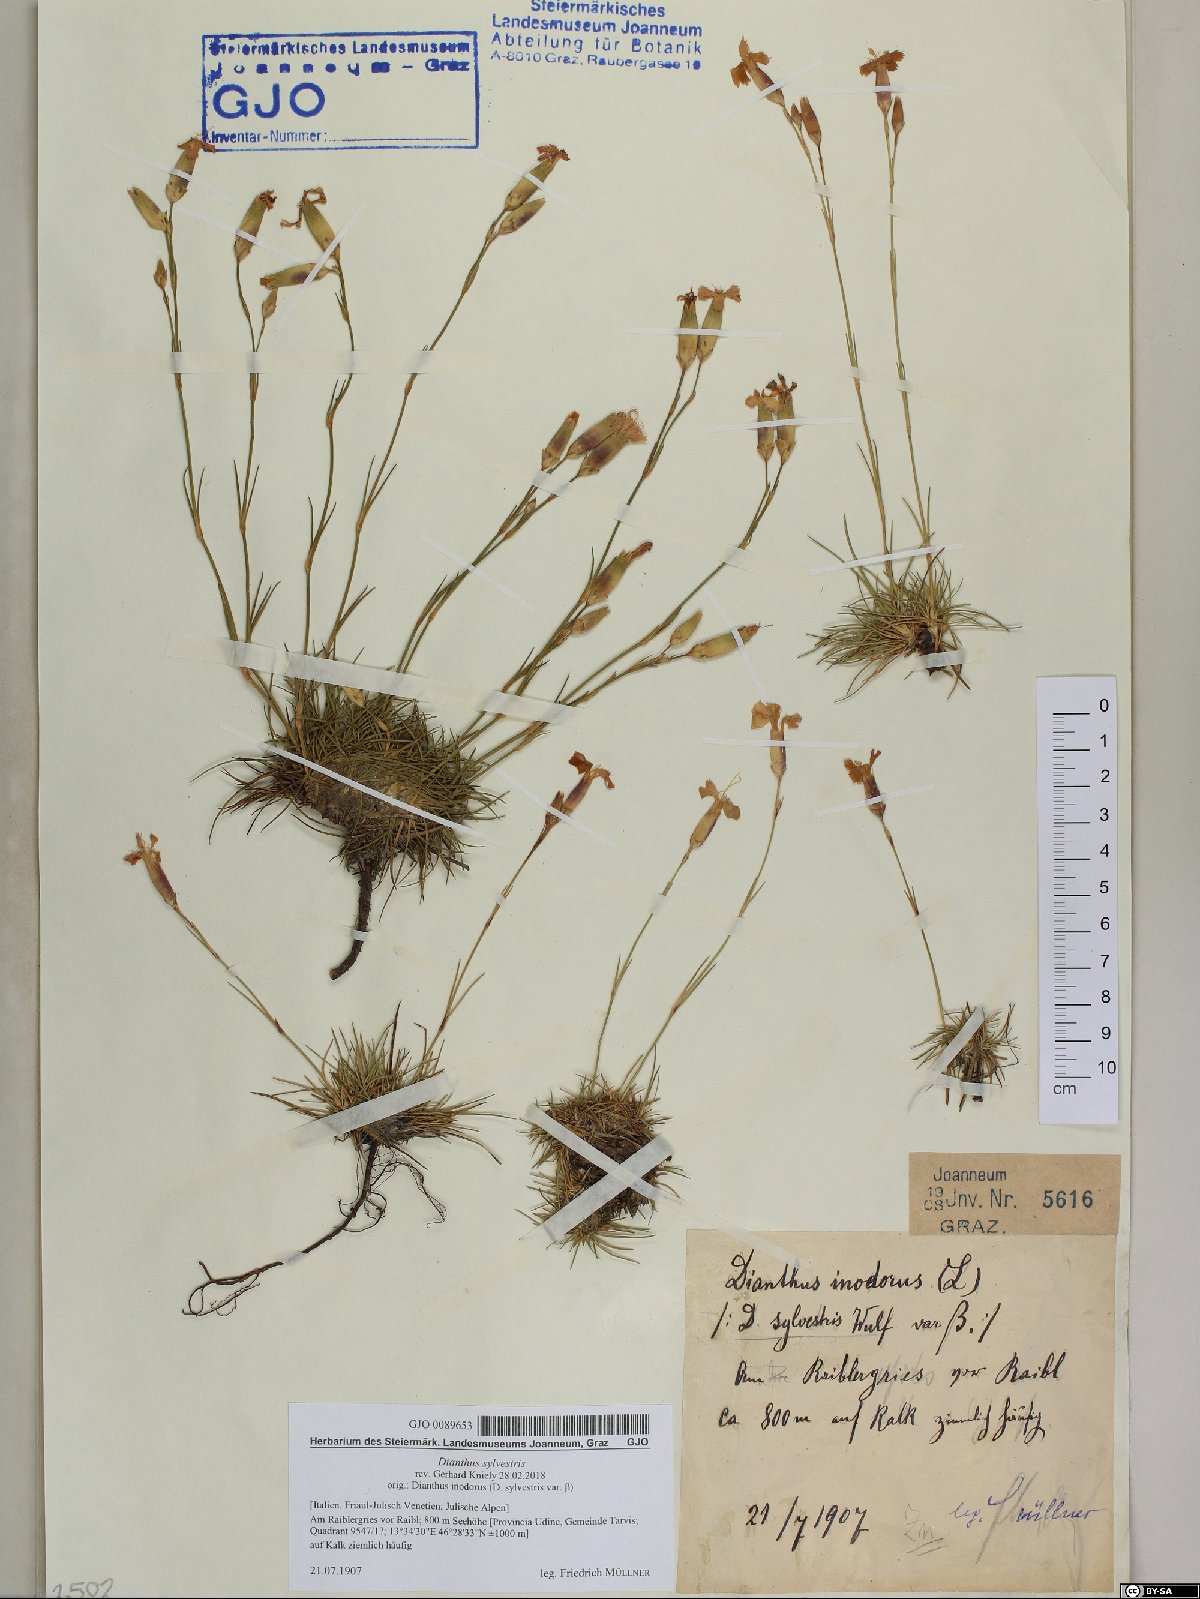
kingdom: Plantae
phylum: Tracheophyta
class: Magnoliopsida
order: Caryophyllales
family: Caryophyllaceae
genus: Dianthus
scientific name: Dianthus sylvestris
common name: Wood pink
